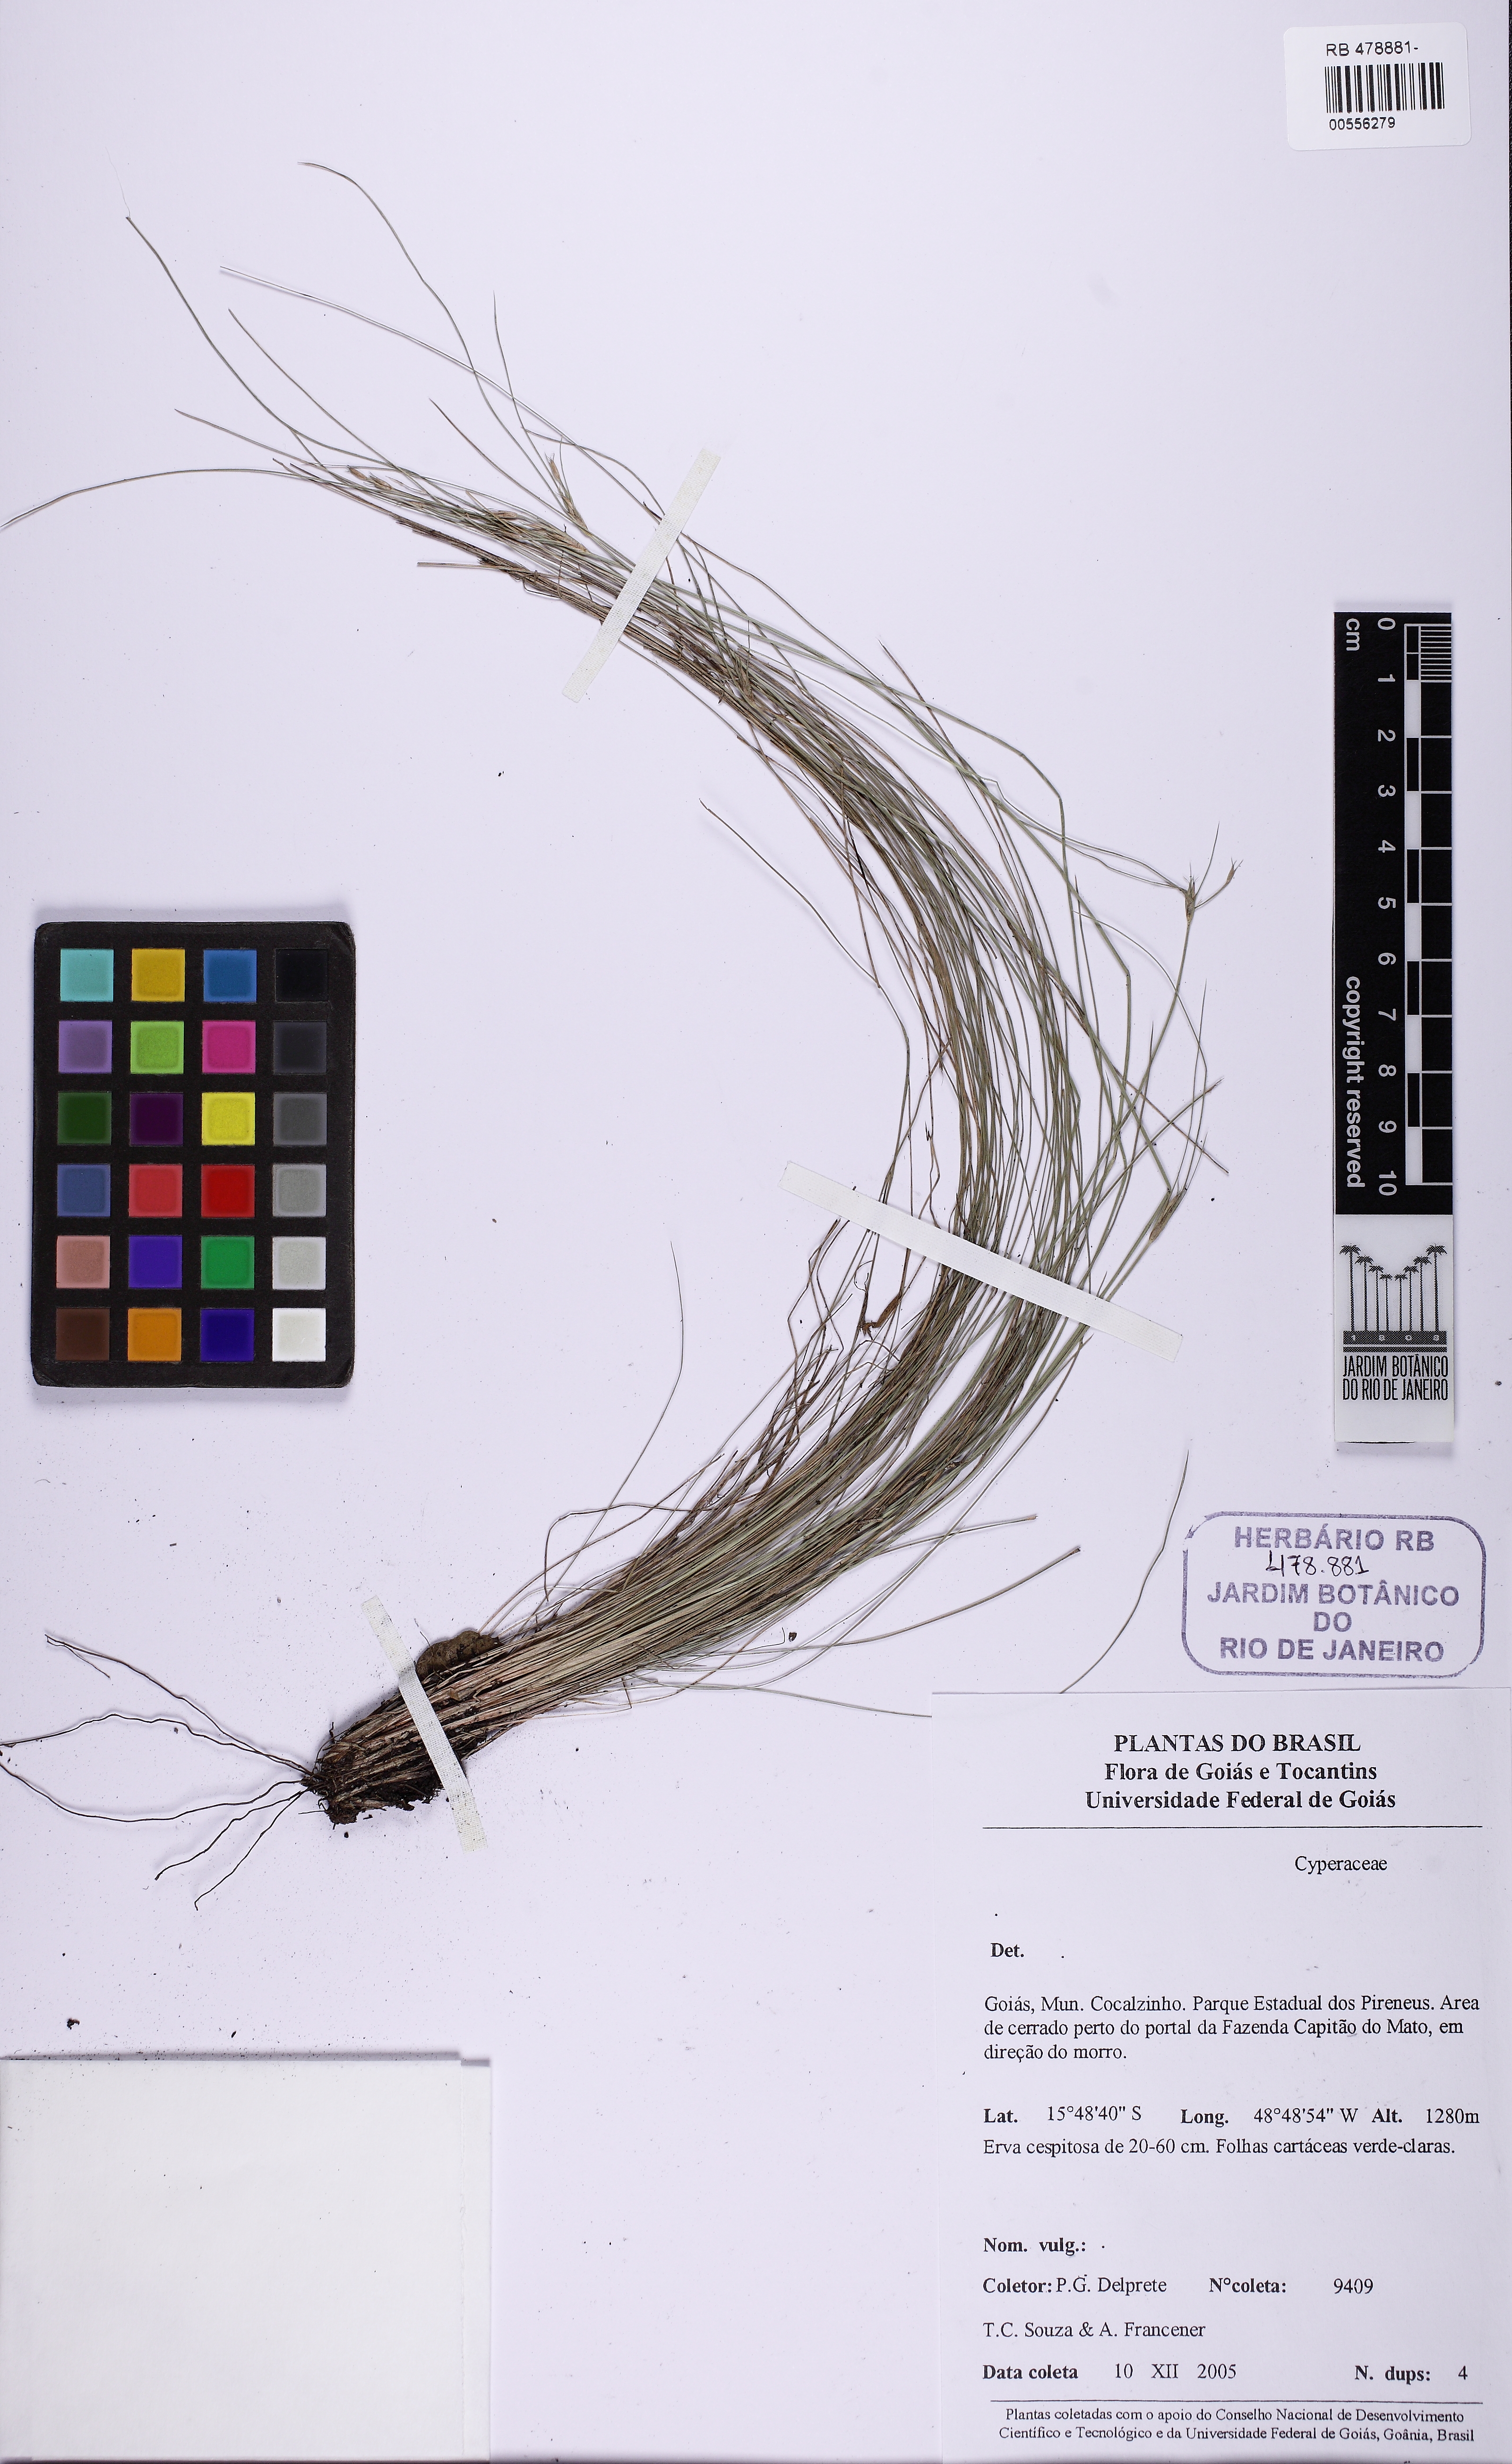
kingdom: Plantae
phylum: Tracheophyta
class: Liliopsida
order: Poales
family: Cyperaceae
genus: Rhynchospora
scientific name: Rhynchospora
